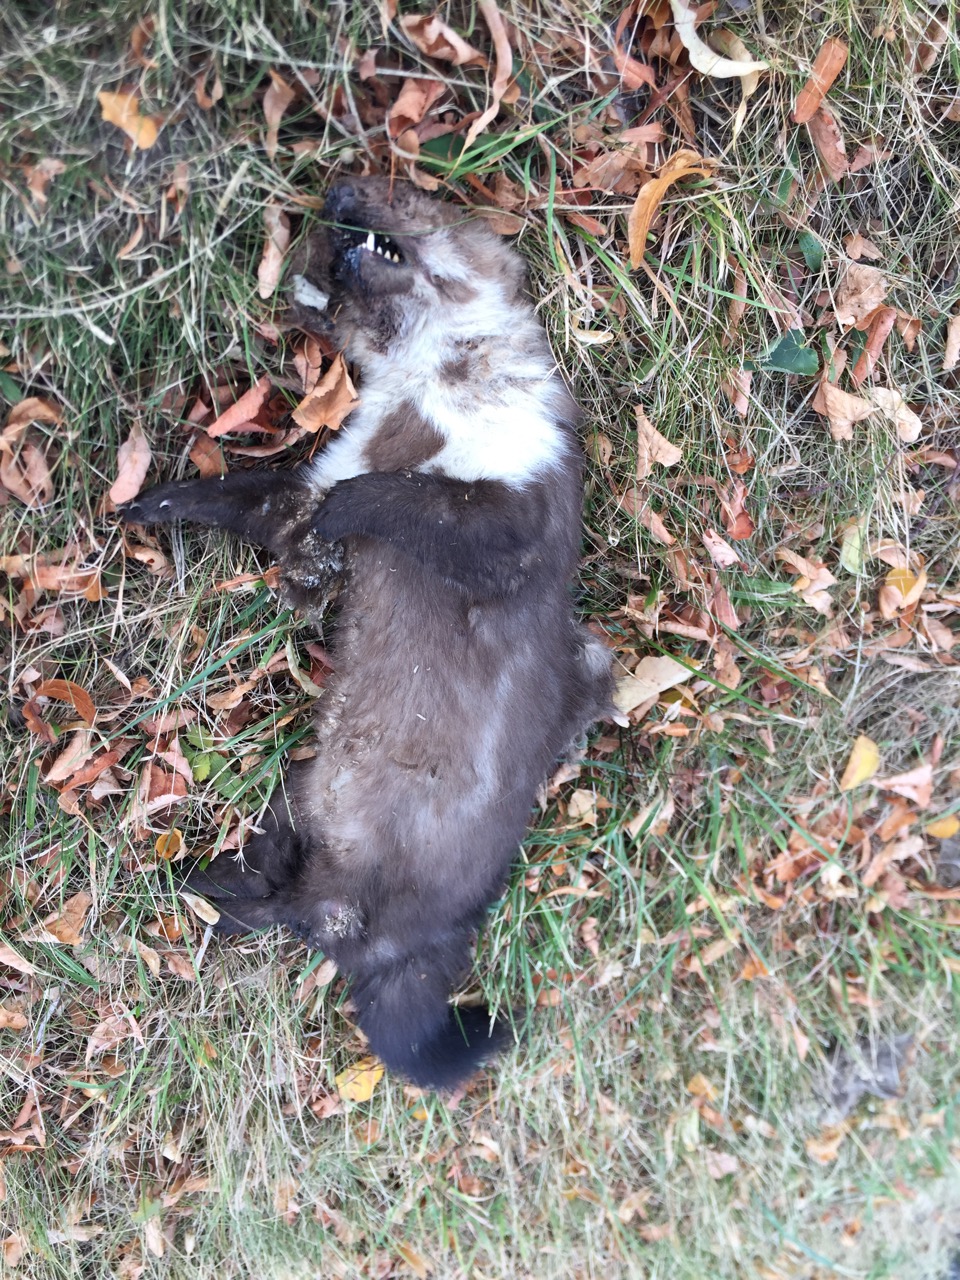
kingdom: Animalia
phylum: Chordata
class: Mammalia
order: Carnivora
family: Mustelidae
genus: Martes
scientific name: Martes foina
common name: Beech marten
